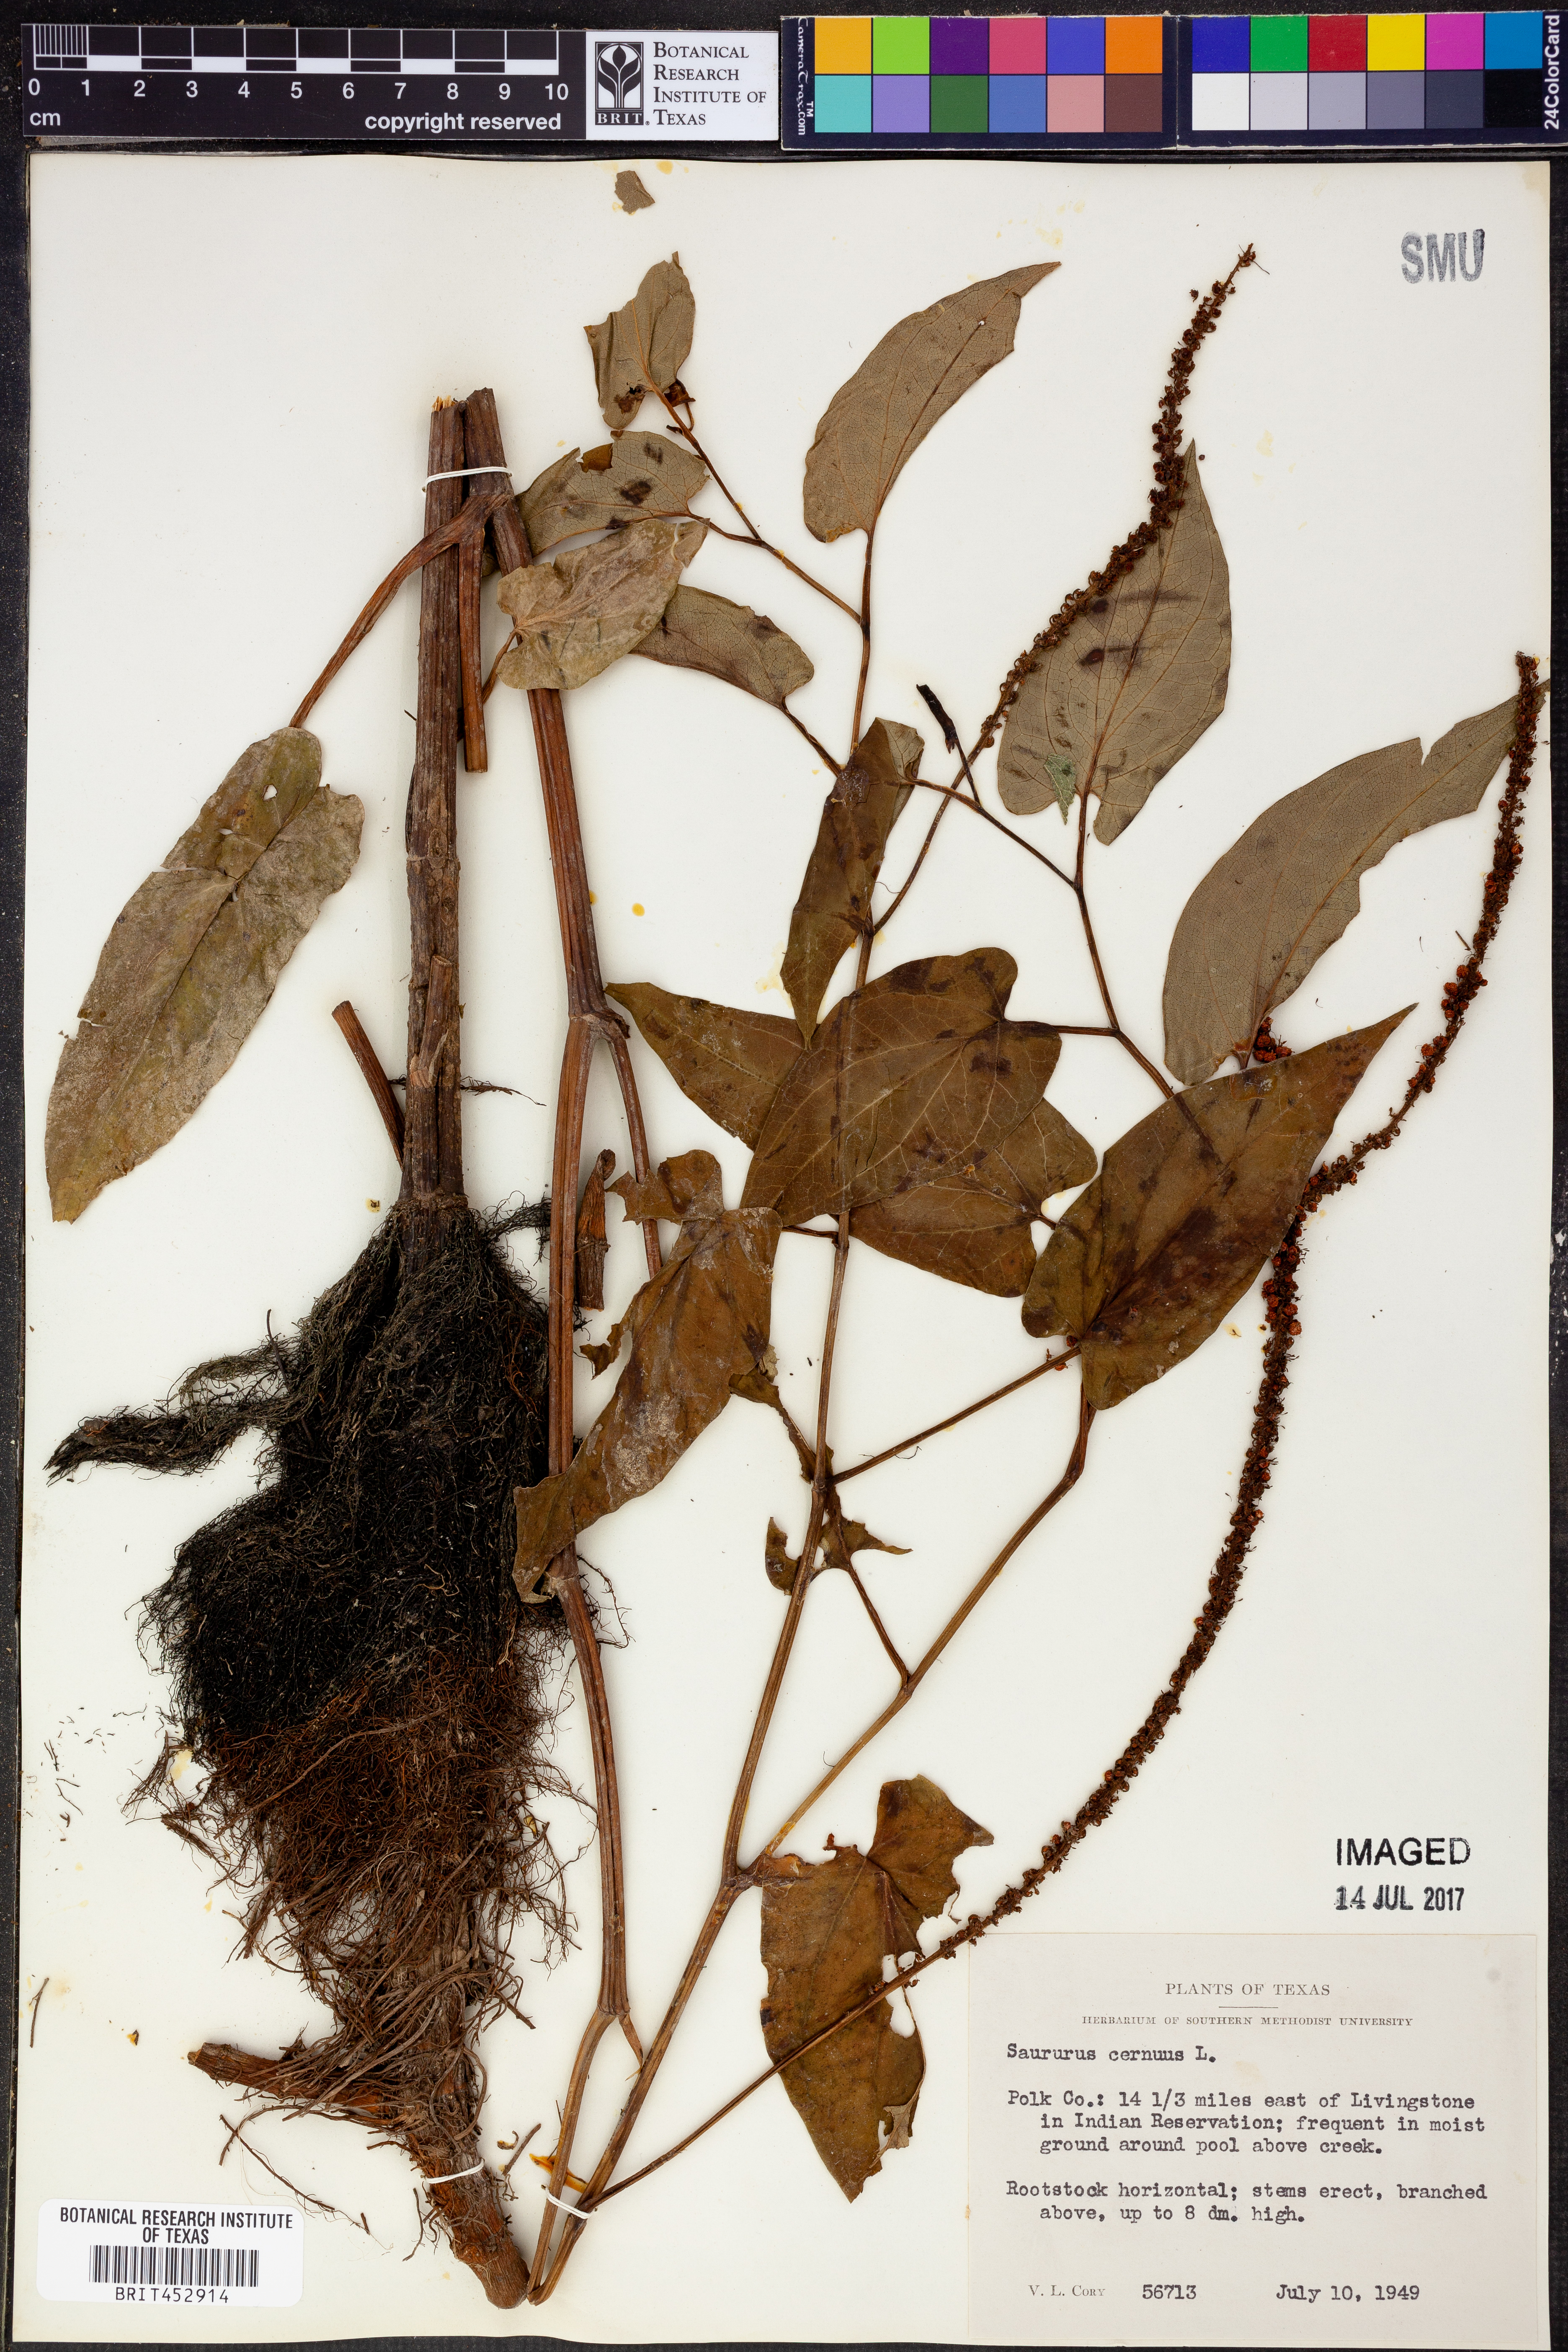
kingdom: Plantae
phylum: Tracheophyta
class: Magnoliopsida
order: Piperales
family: Saururaceae
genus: Saururus
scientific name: Saururus cernuus
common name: Lizard's-tail
